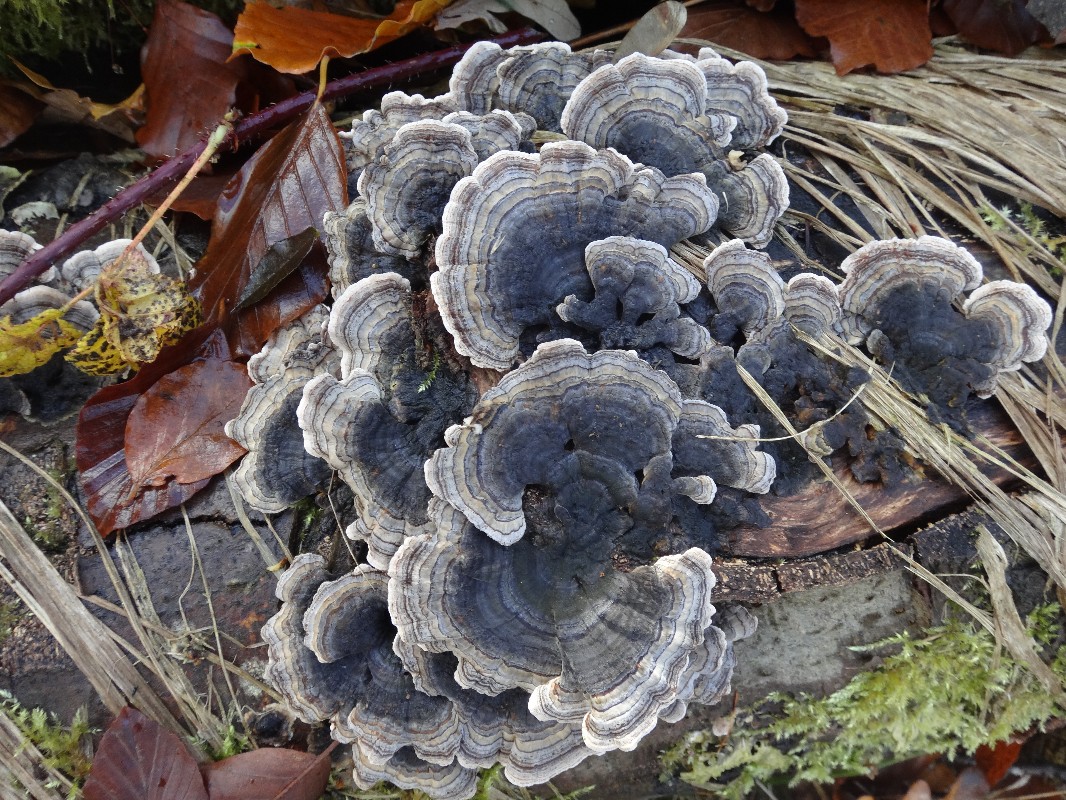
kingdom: Fungi
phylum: Basidiomycota
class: Agaricomycetes
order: Polyporales
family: Polyporaceae
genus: Trametes
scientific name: Trametes versicolor
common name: broget læderporesvamp
